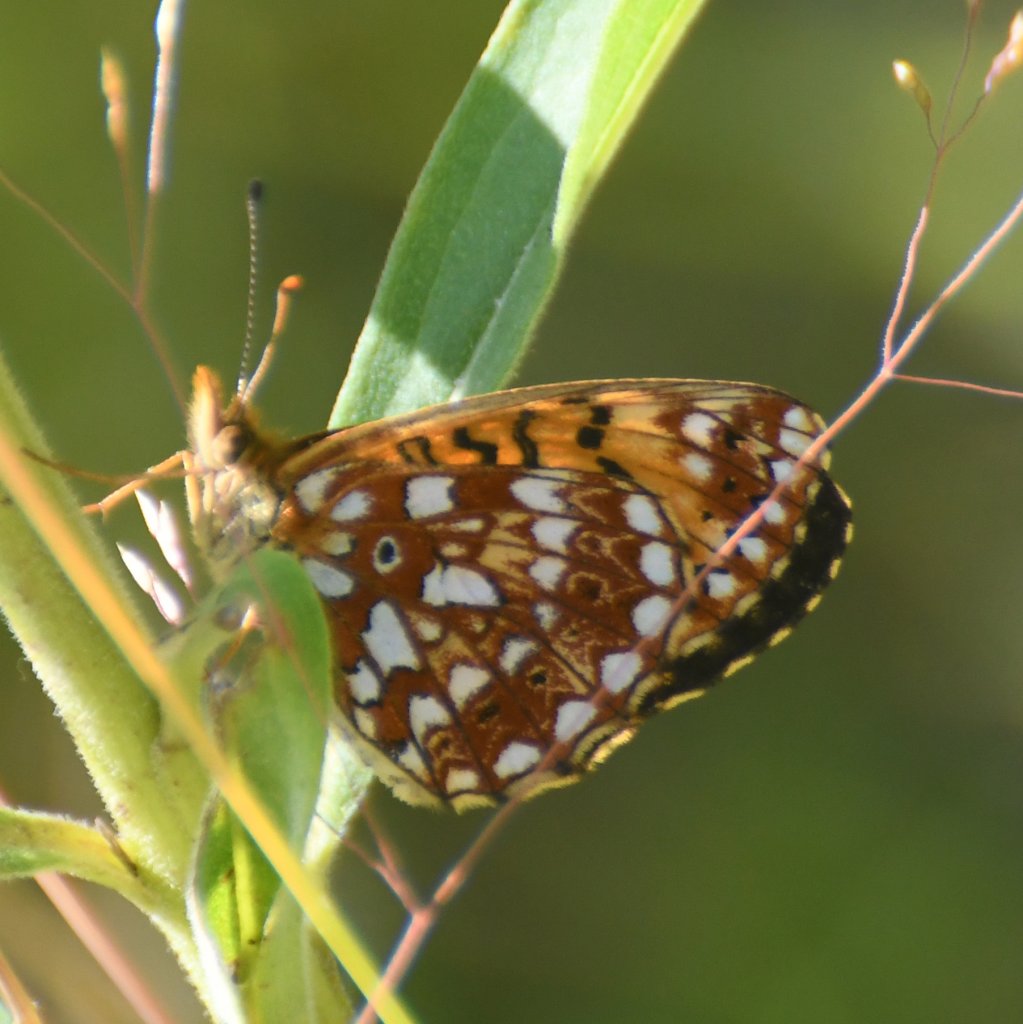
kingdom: Animalia
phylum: Arthropoda
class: Insecta
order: Lepidoptera
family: Nymphalidae
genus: Boloria
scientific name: Boloria selene
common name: Silver-bordered Fritillary
